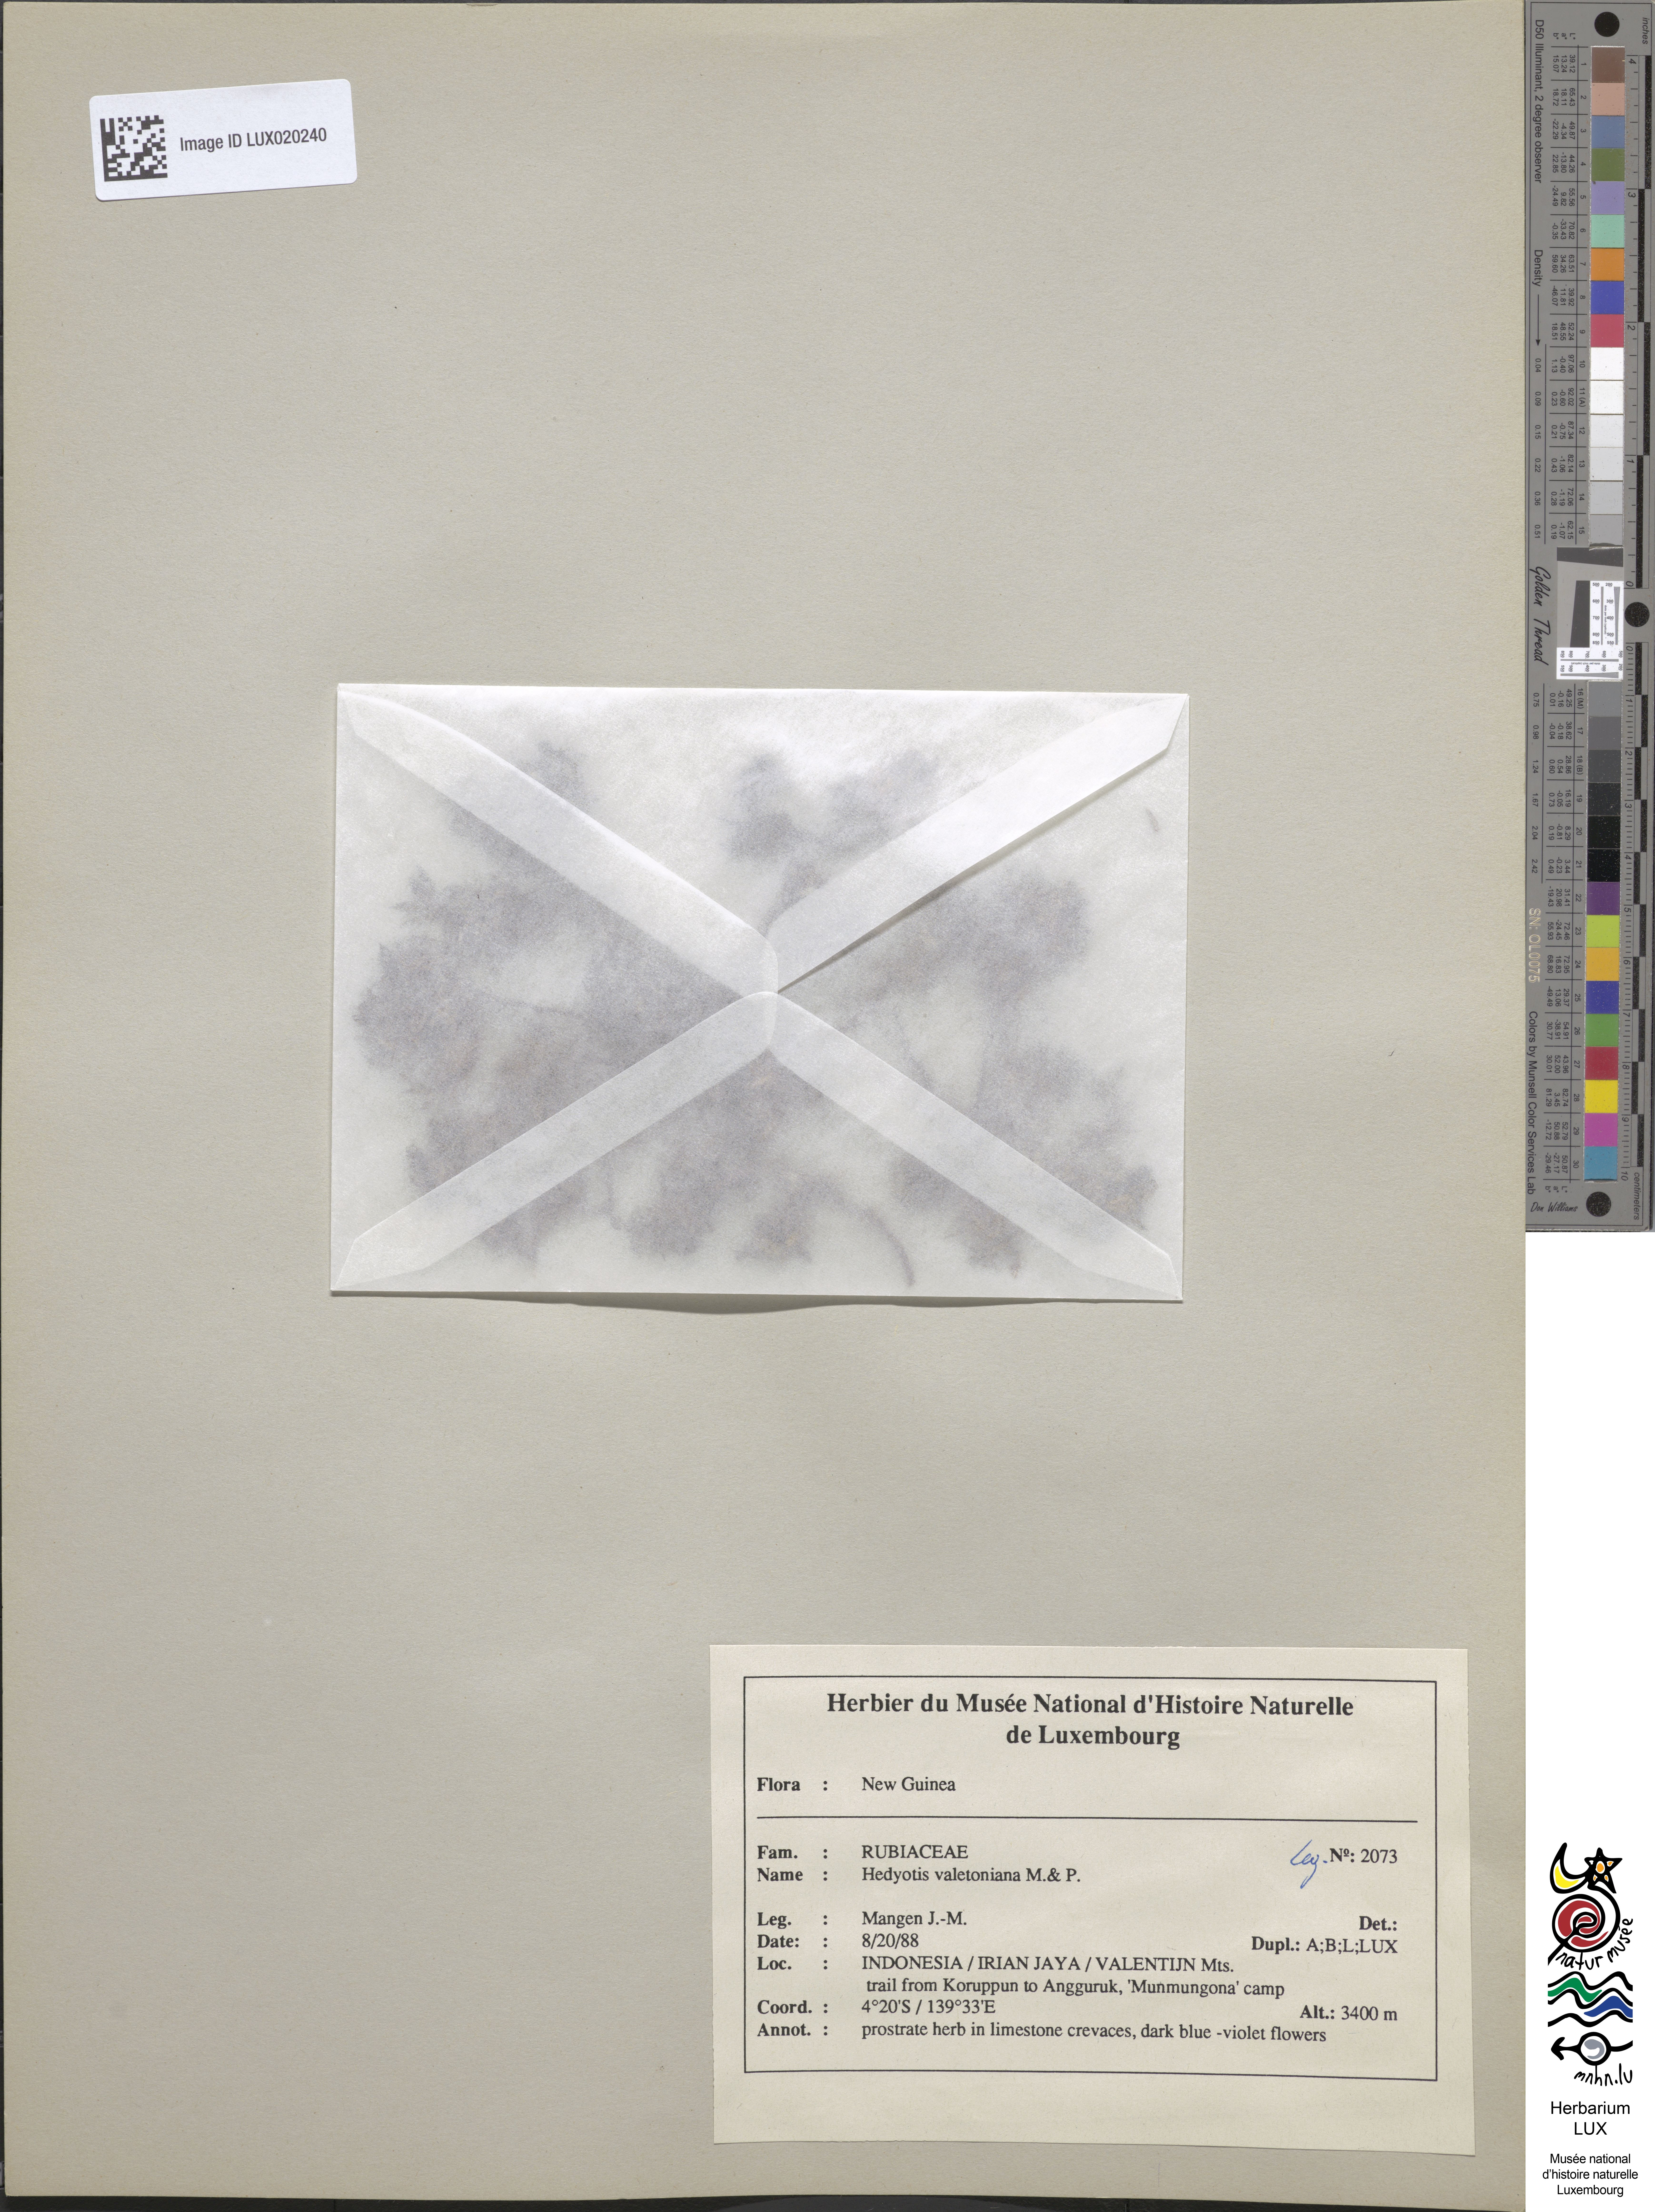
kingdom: Plantae
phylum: Tracheophyta
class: Magnoliopsida
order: Gentianales
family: Rubiaceae
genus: Hedyotis
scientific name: Hedyotis valetoniana
